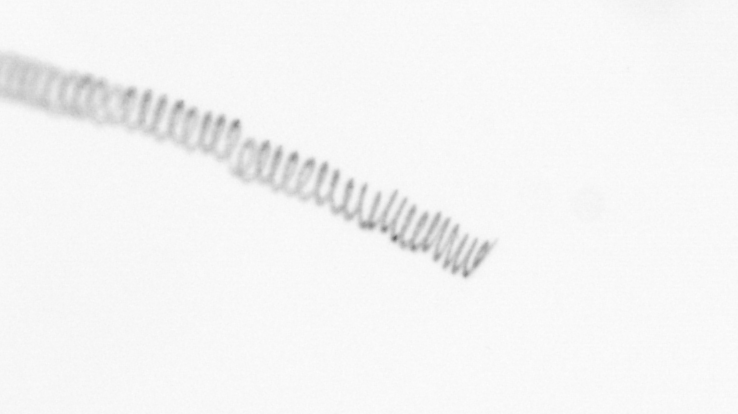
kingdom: Chromista
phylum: Ochrophyta
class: Bacillariophyceae
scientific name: Bacillariophyceae
